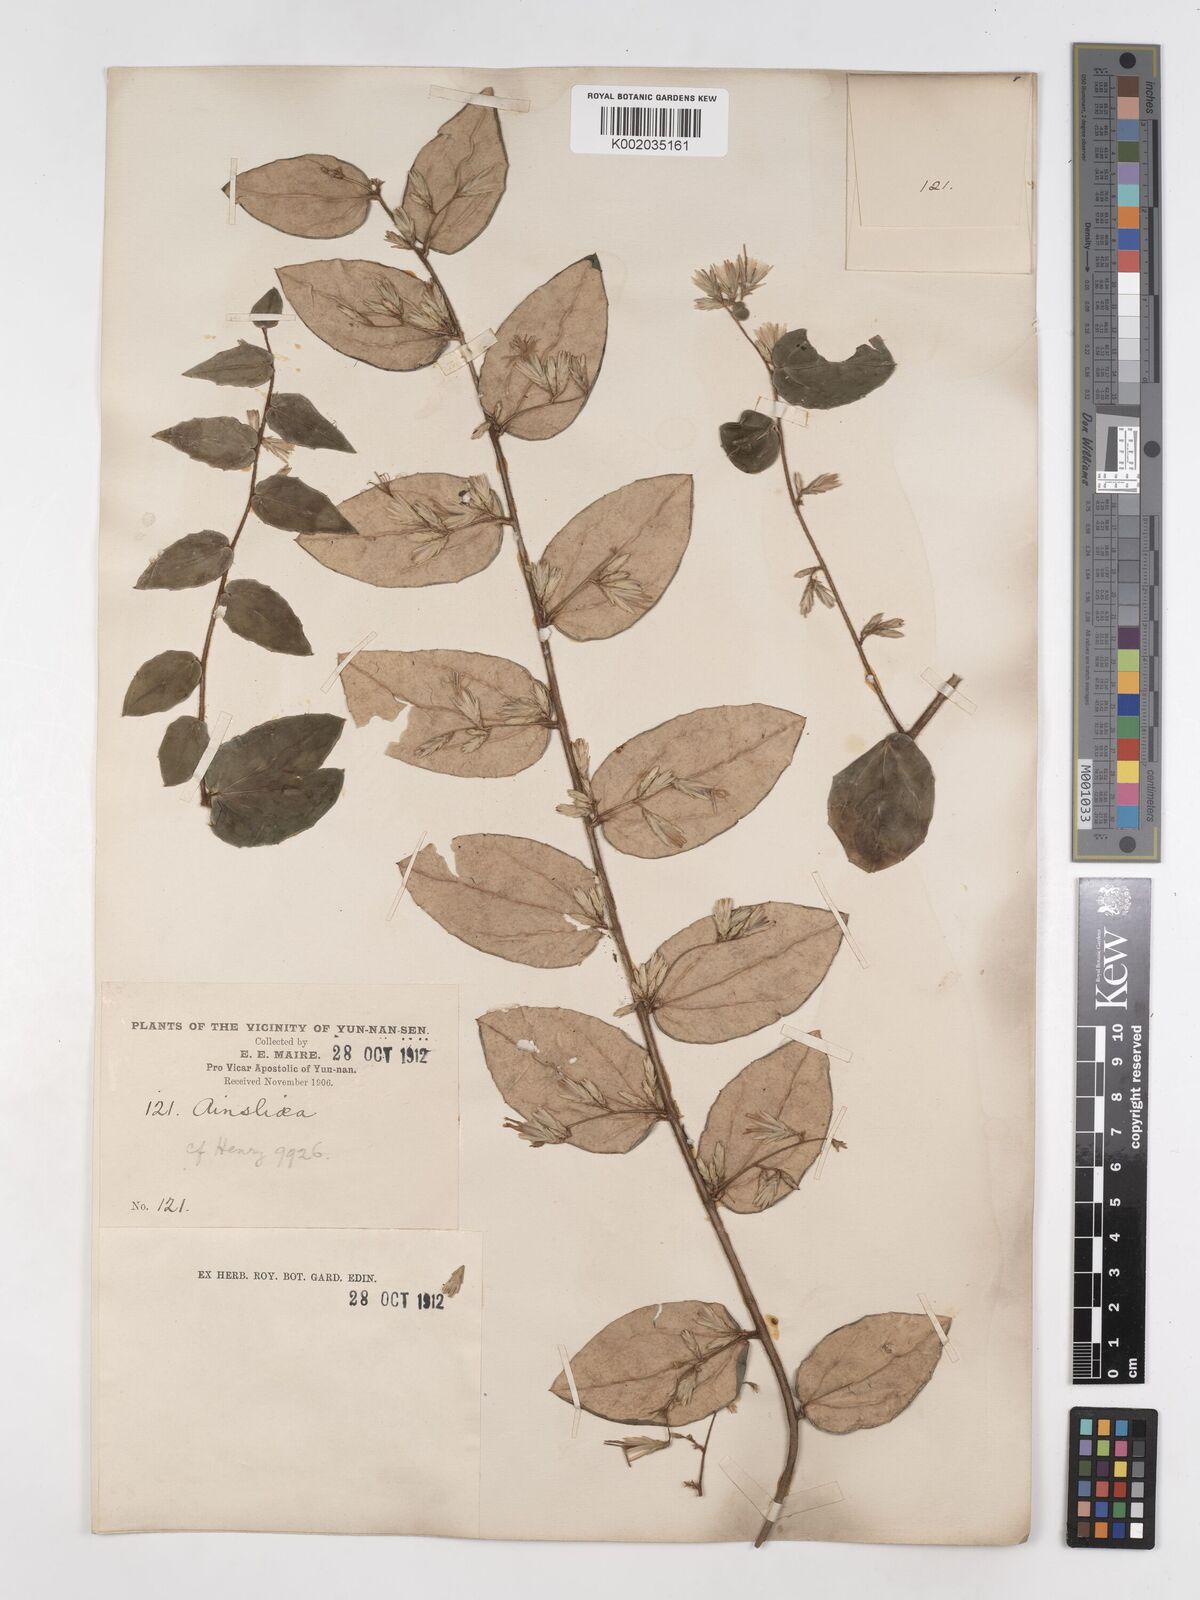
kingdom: Plantae
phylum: Tracheophyta
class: Magnoliopsida
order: Asterales
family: Asteraceae
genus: Ainsliaea
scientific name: Ainsliaea pertyoides
